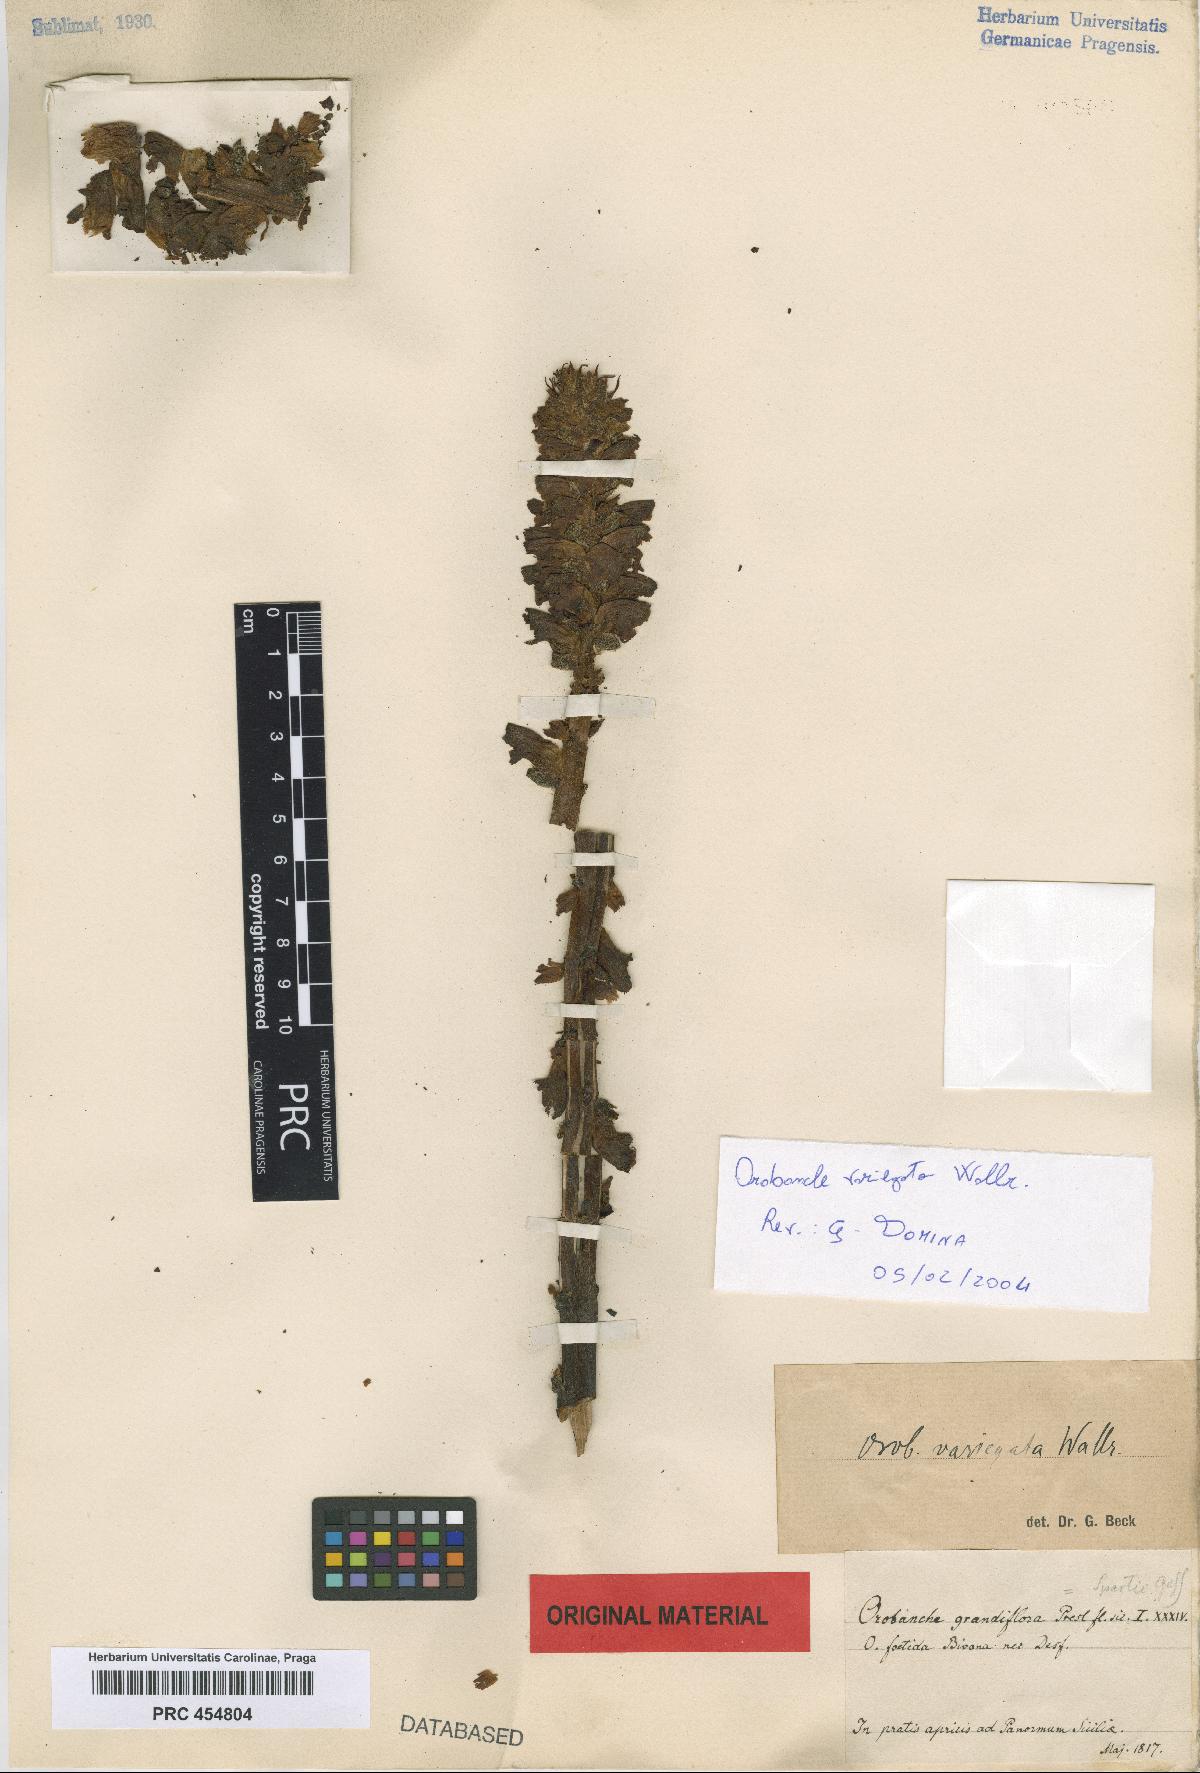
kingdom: Plantae
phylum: Tracheophyta
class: Magnoliopsida
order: Lamiales
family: Orobanchaceae
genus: Orobanche
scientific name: Orobanche variegata
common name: Variegated broomrape
